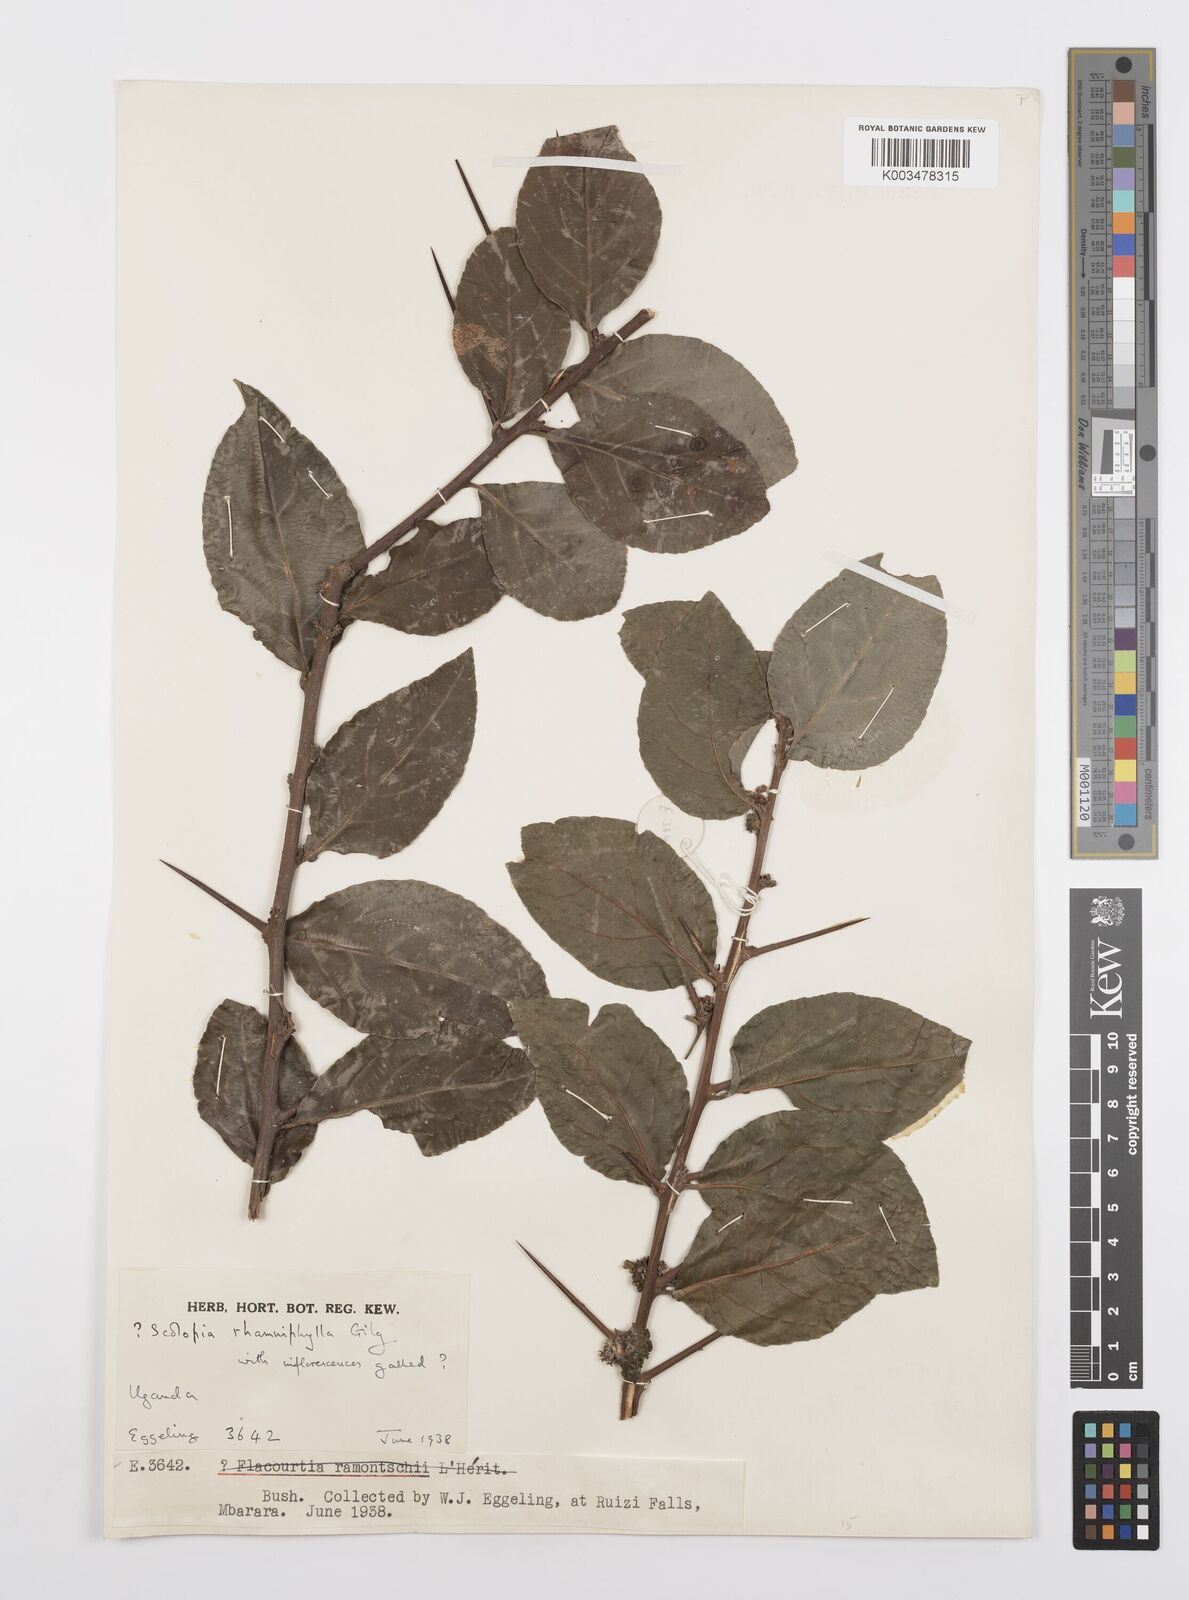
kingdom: Plantae
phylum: Tracheophyta
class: Magnoliopsida
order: Malpighiales
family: Salicaceae
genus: Scolopia
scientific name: Scolopia rhamniphylla
